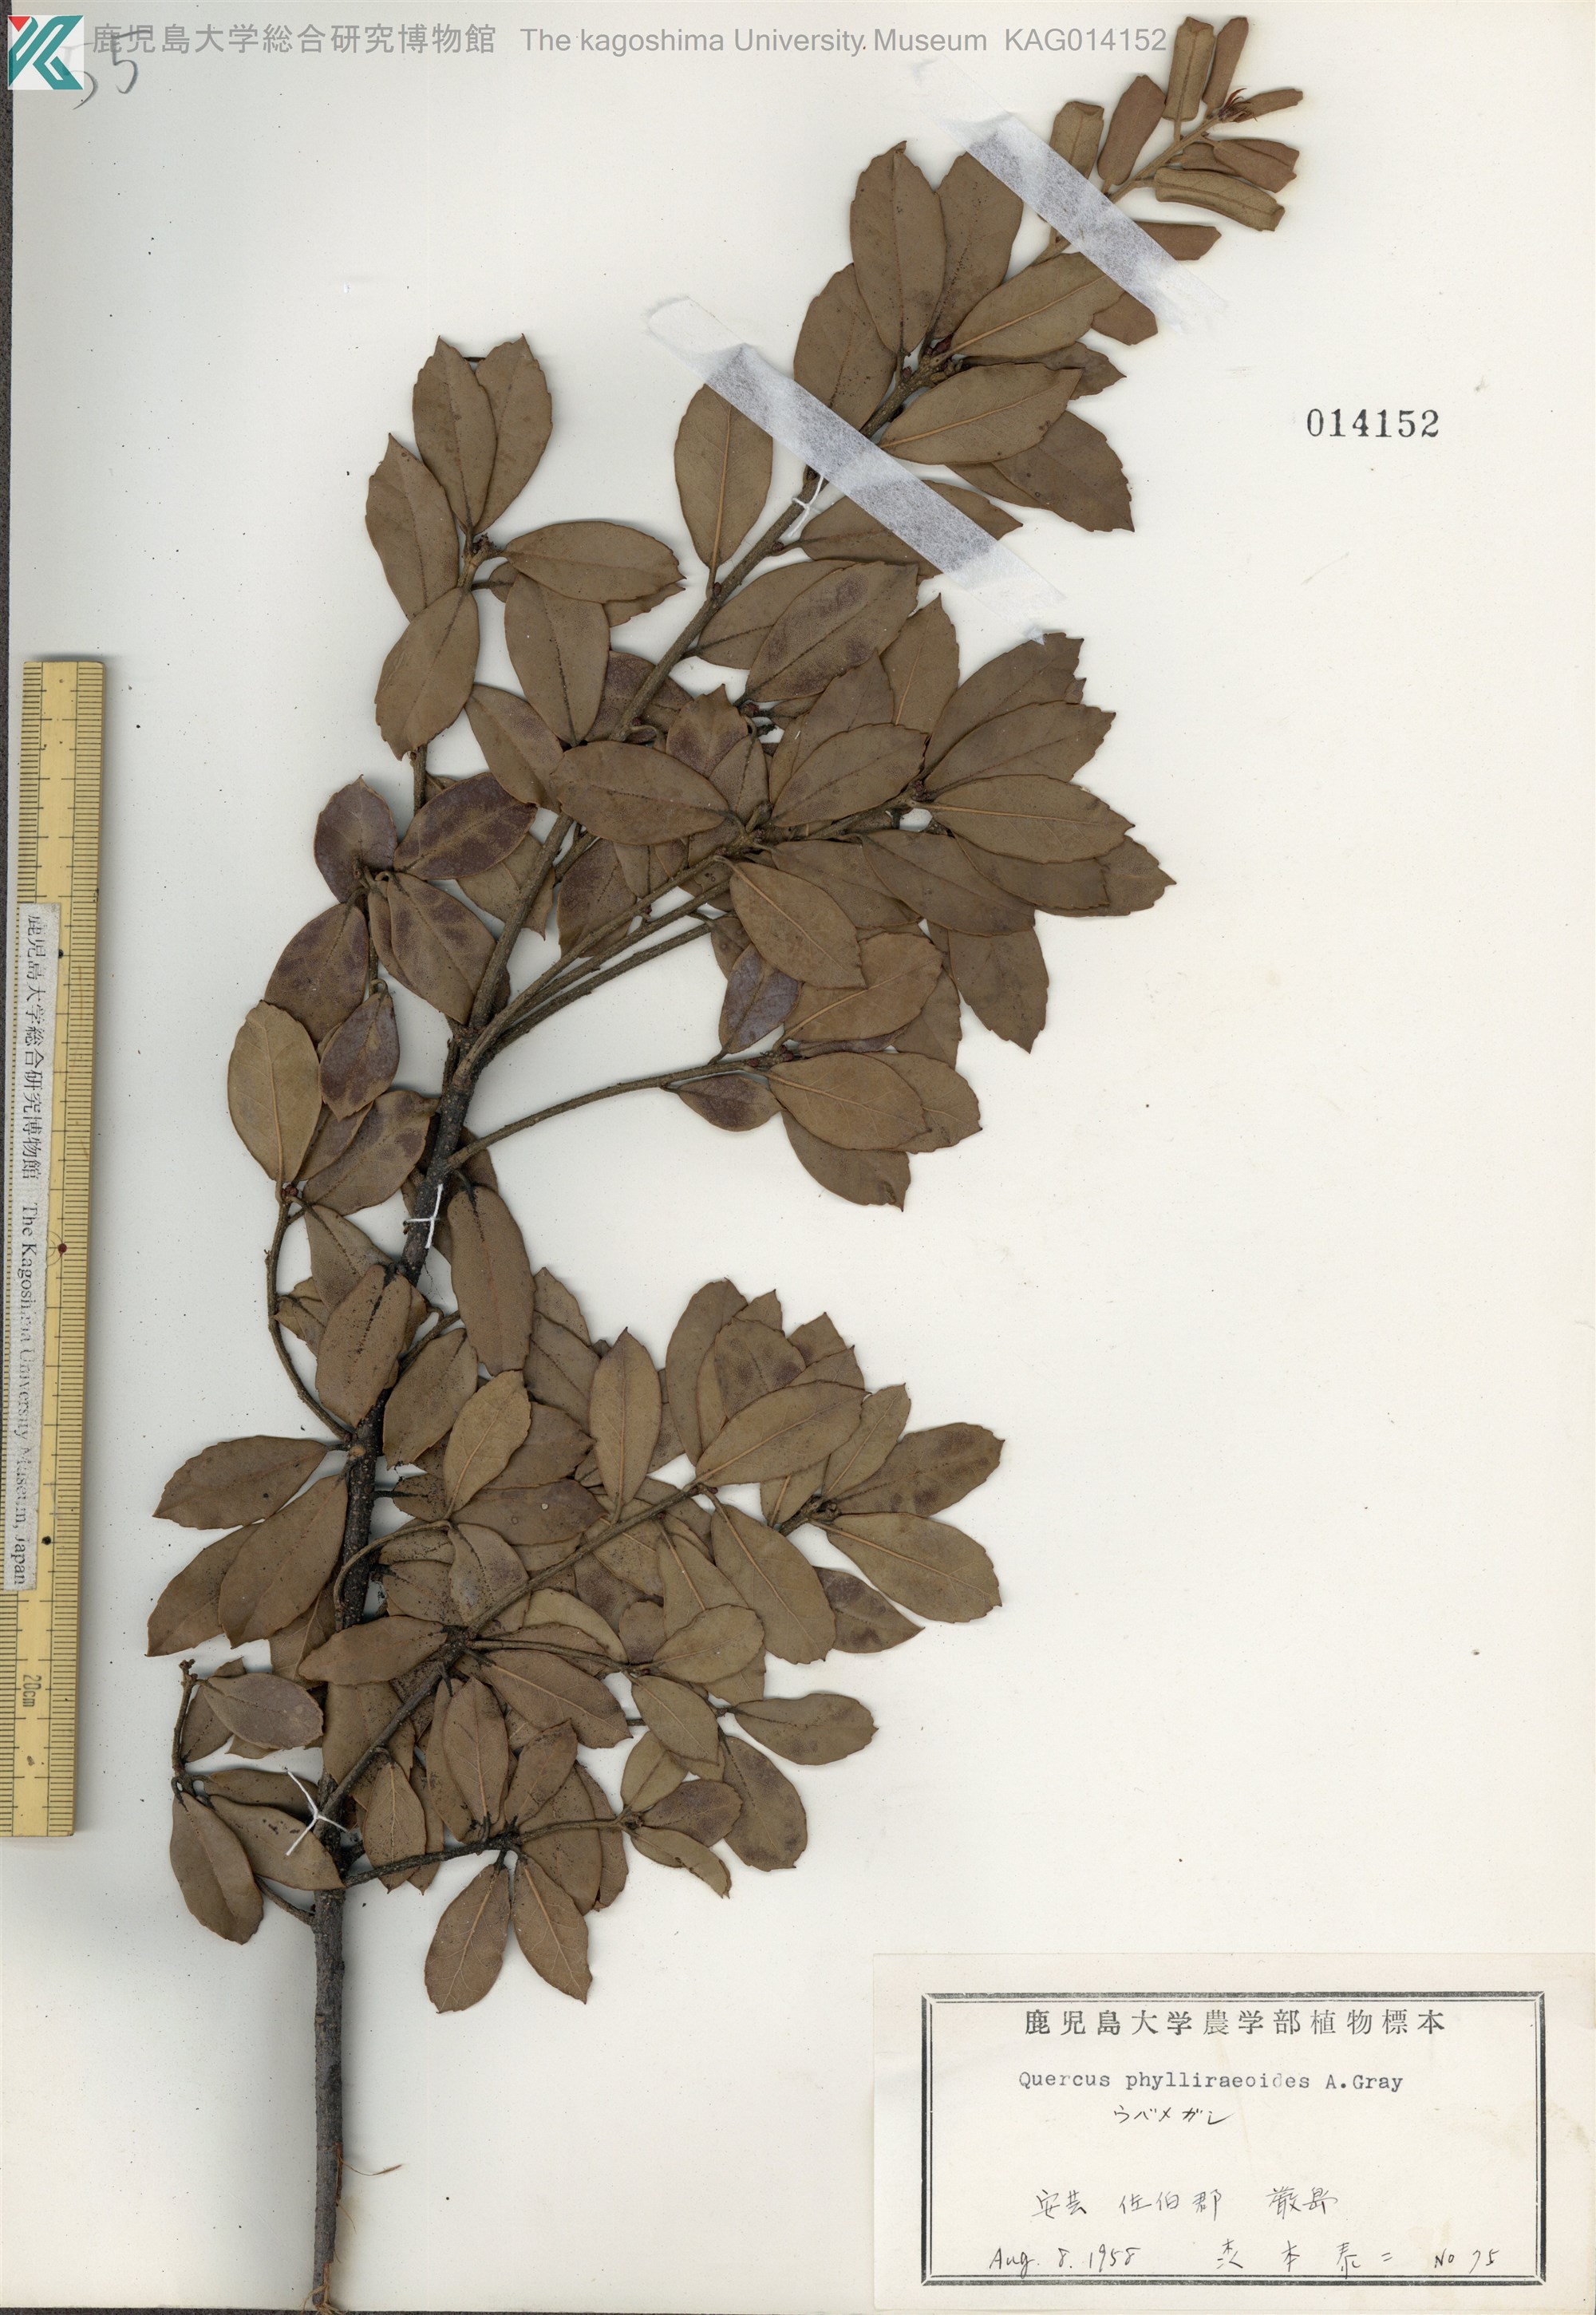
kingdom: Plantae
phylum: Tracheophyta
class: Magnoliopsida
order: Fagales
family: Fagaceae
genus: Quercus
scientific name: Quercus phillyraeoides
